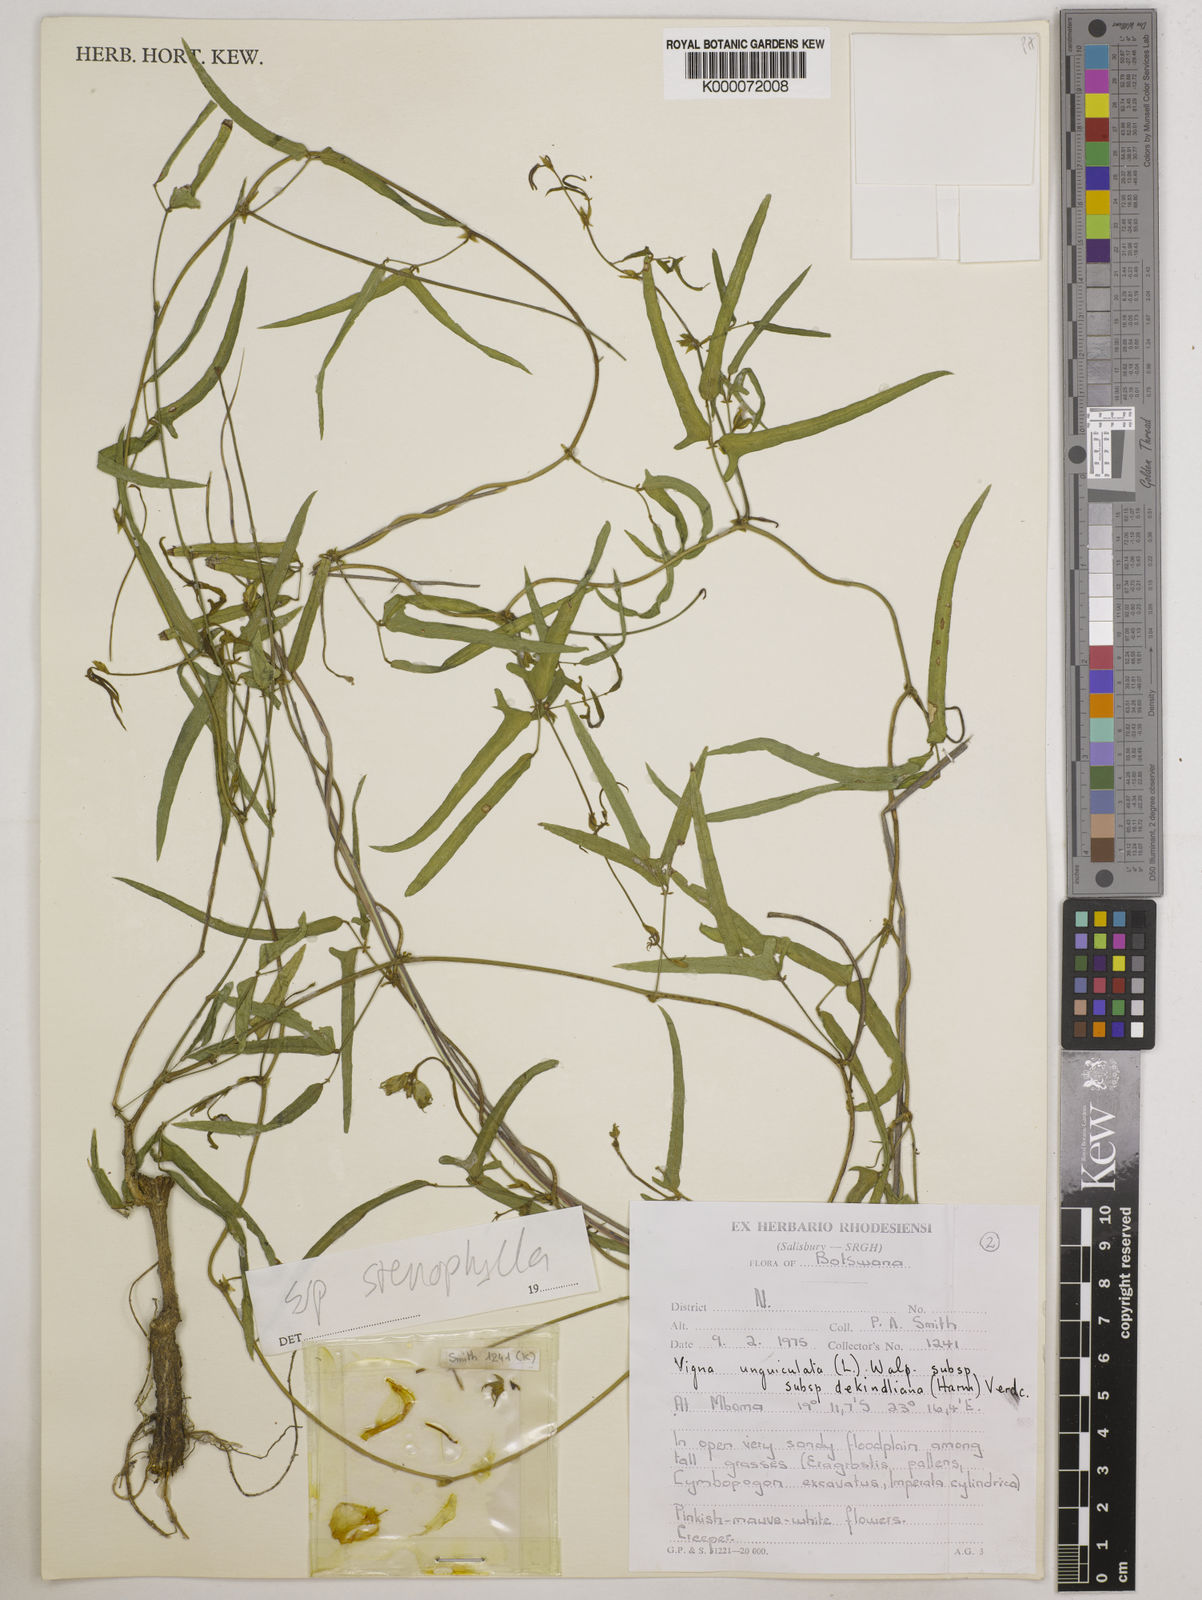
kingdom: Plantae
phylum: Tracheophyta
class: Magnoliopsida
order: Fabales
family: Fabaceae
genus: Vigna
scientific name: Vigna unguiculata
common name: Cowpea
